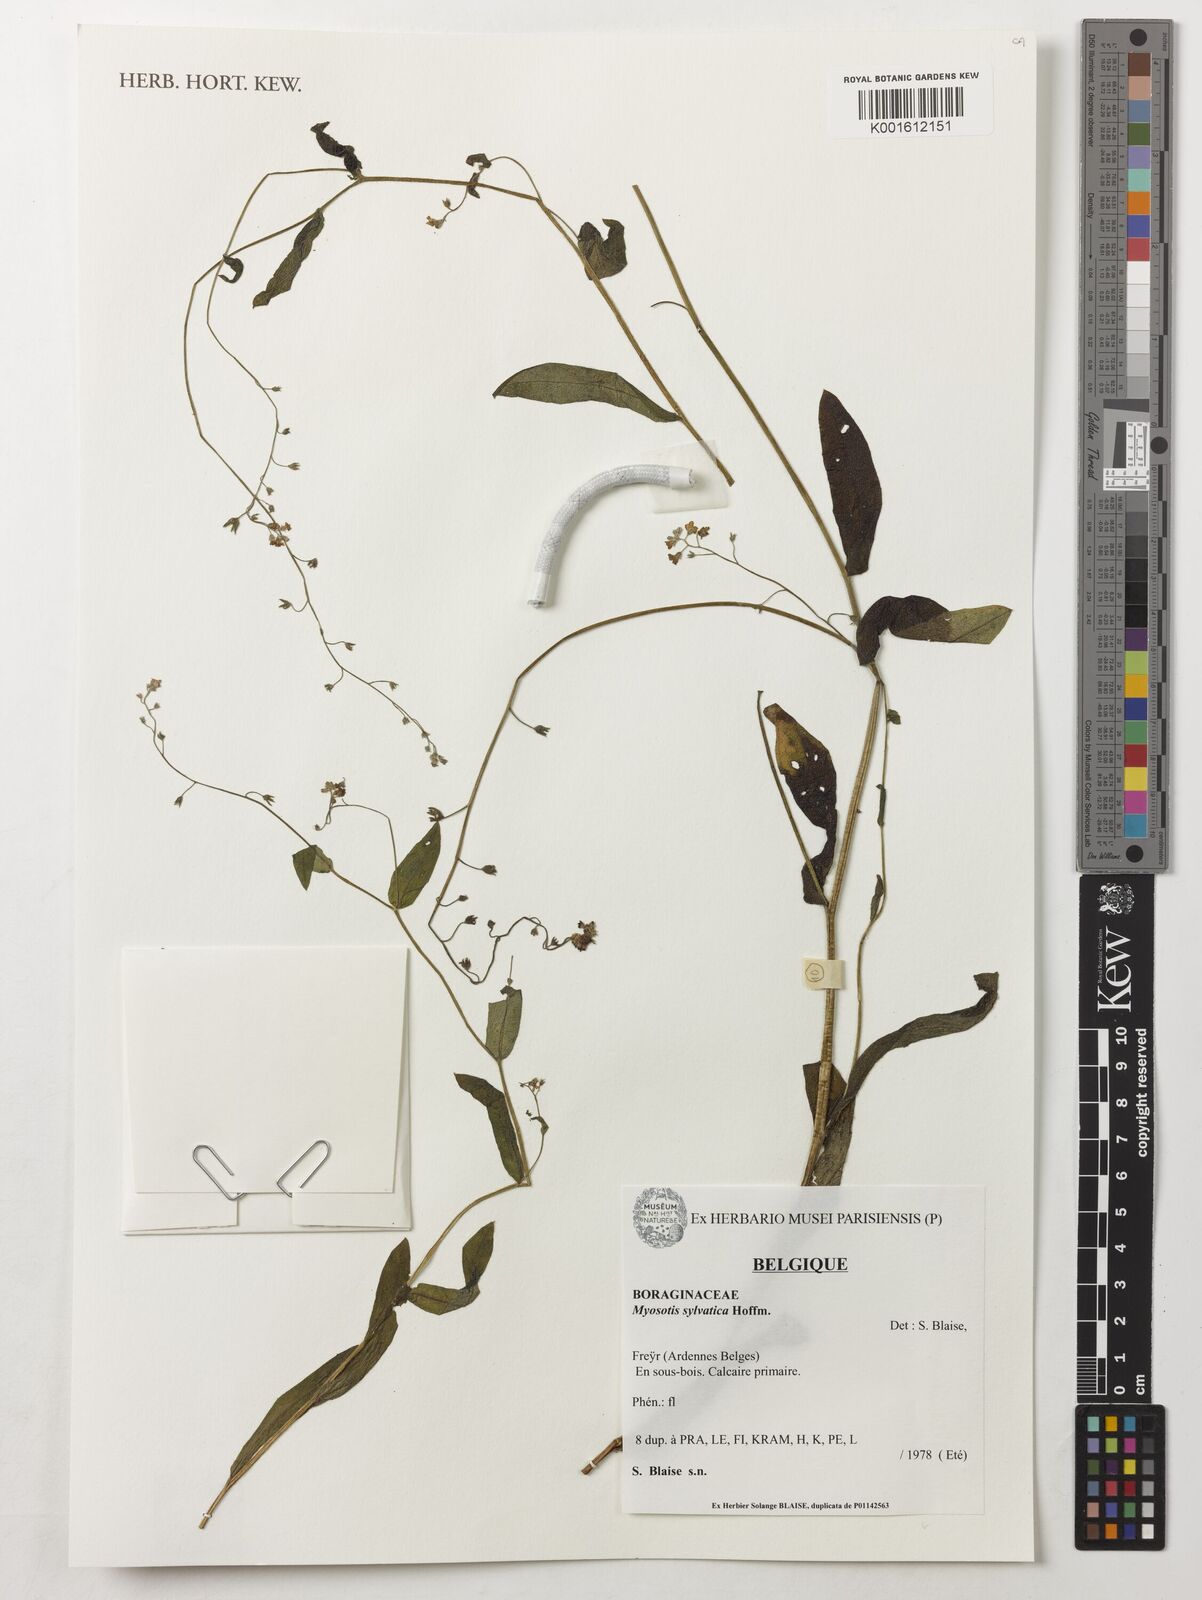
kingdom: Plantae
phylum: Tracheophyta
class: Magnoliopsida
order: Boraginales
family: Boraginaceae
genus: Myosotis
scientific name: Myosotis sylvatica
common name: Wood forget-me-not
